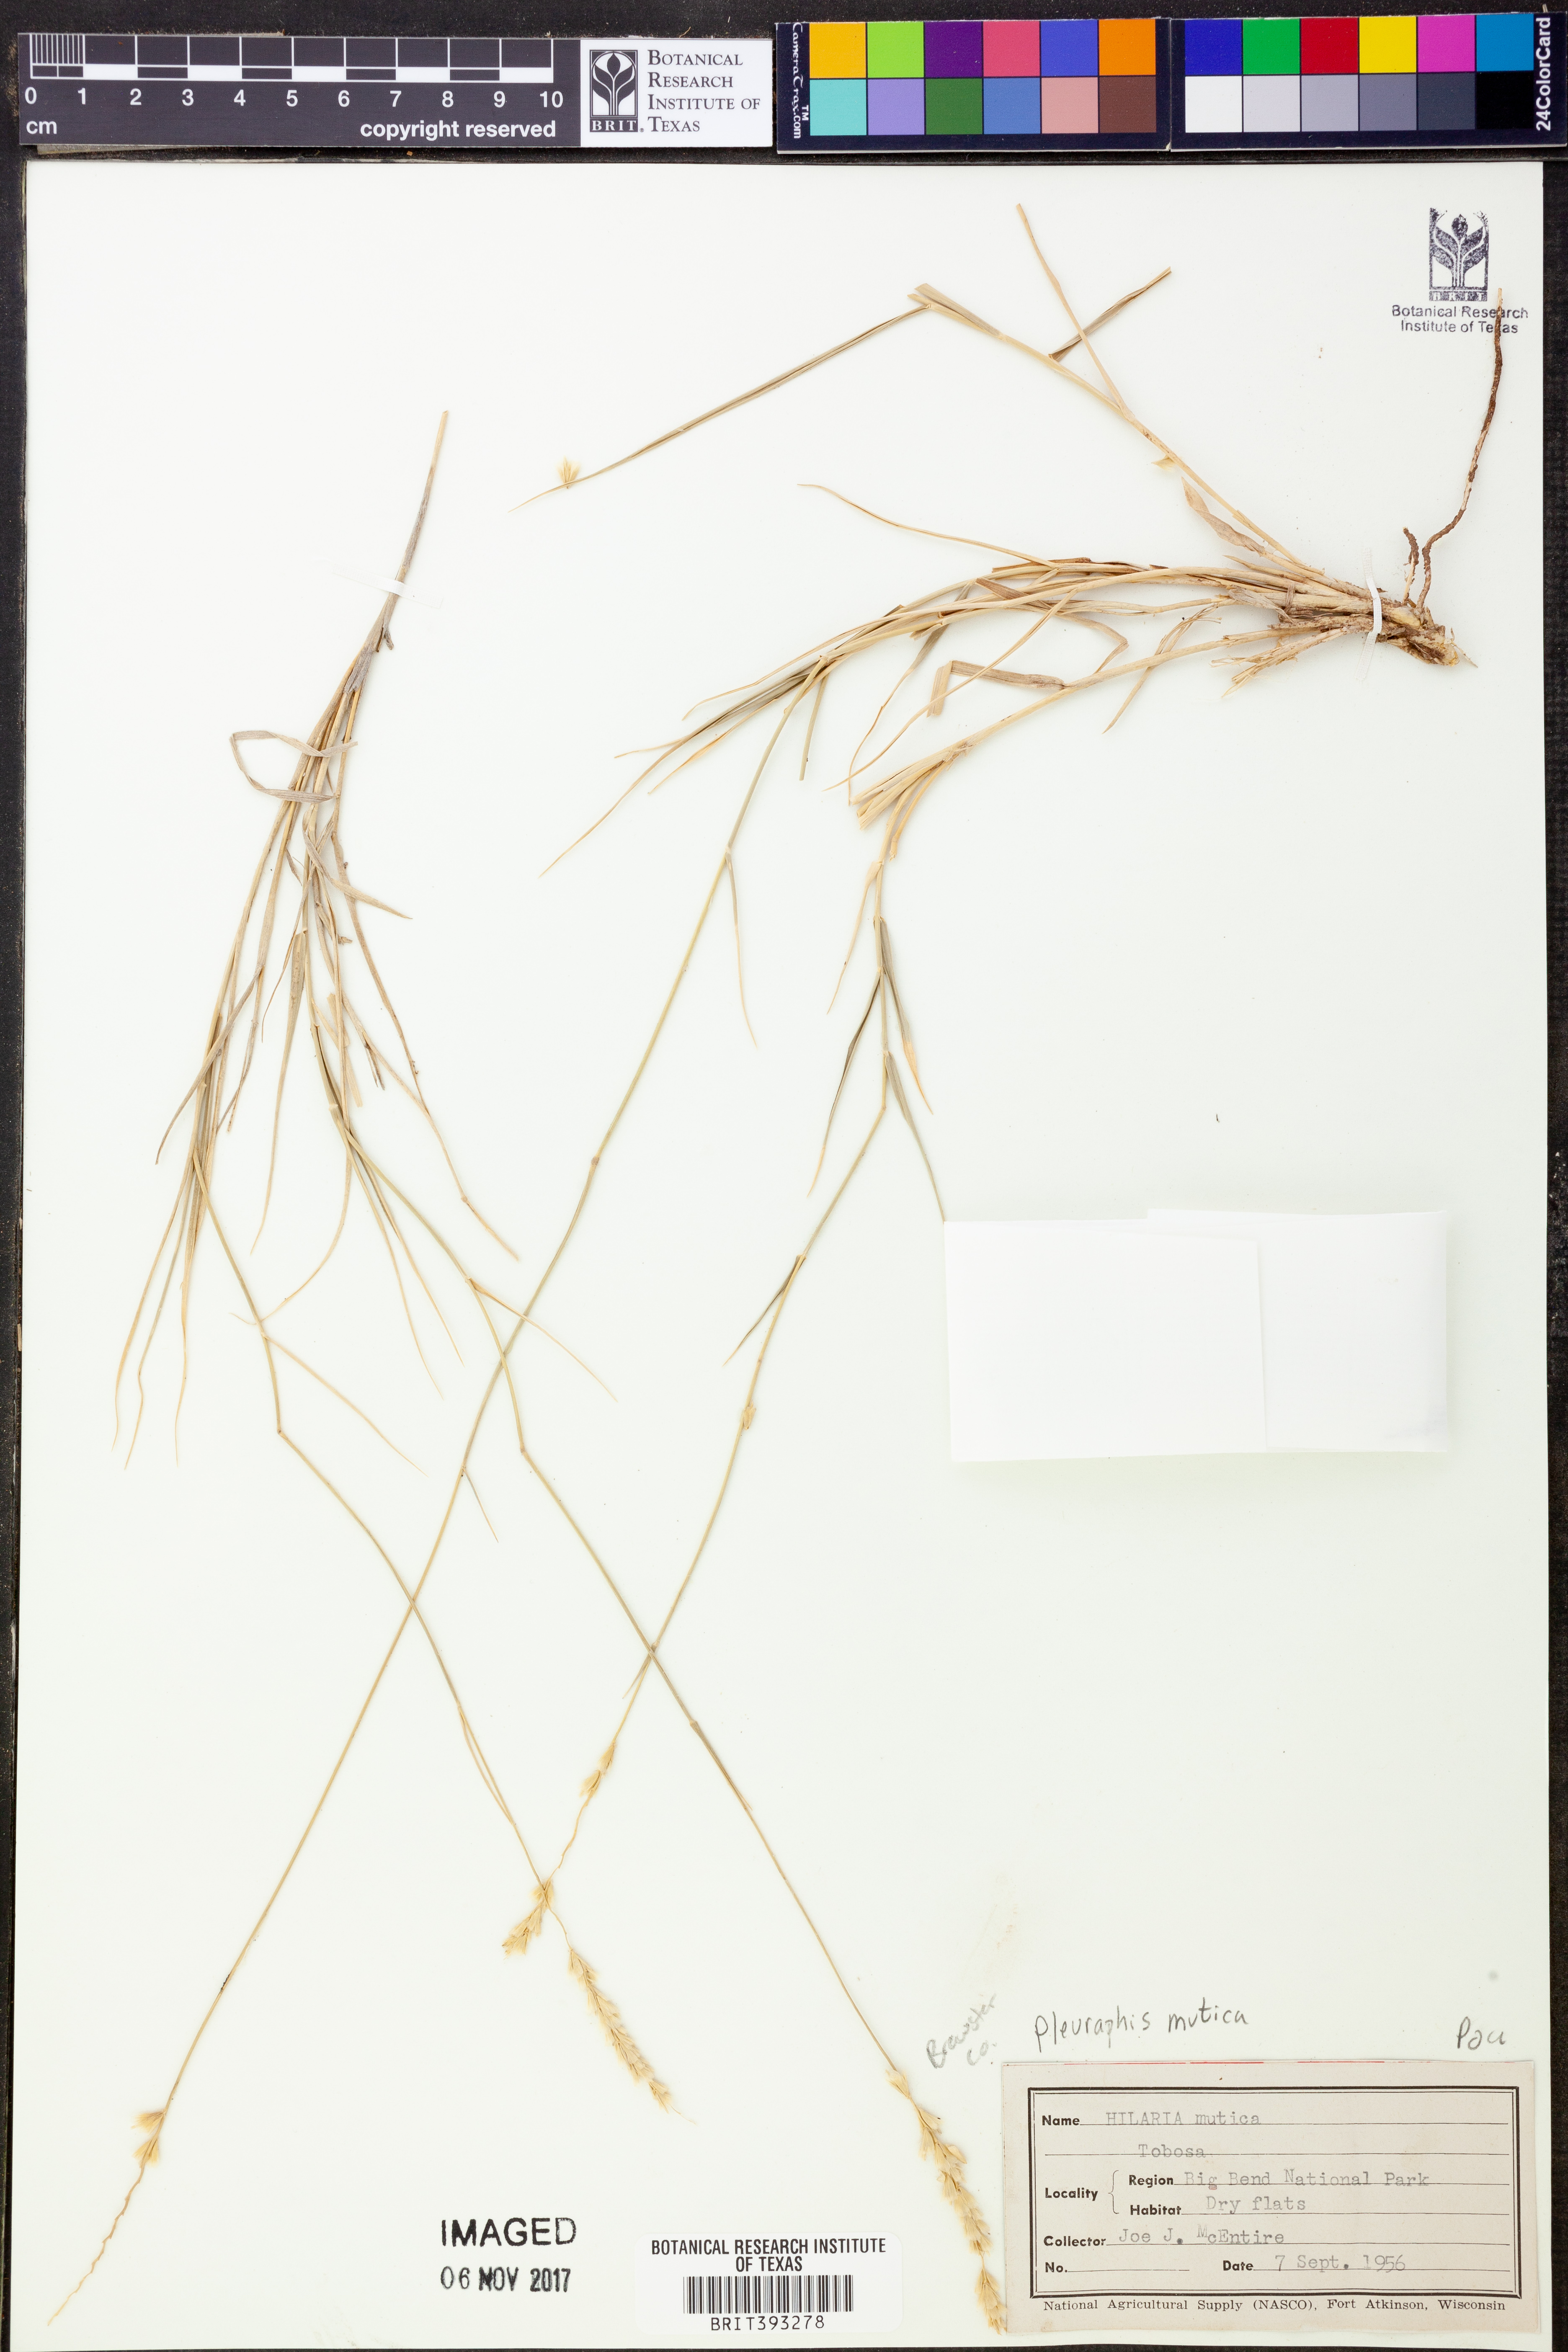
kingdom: Plantae
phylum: Tracheophyta
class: Liliopsida
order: Poales
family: Poaceae
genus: Hilaria
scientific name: Hilaria mutica
